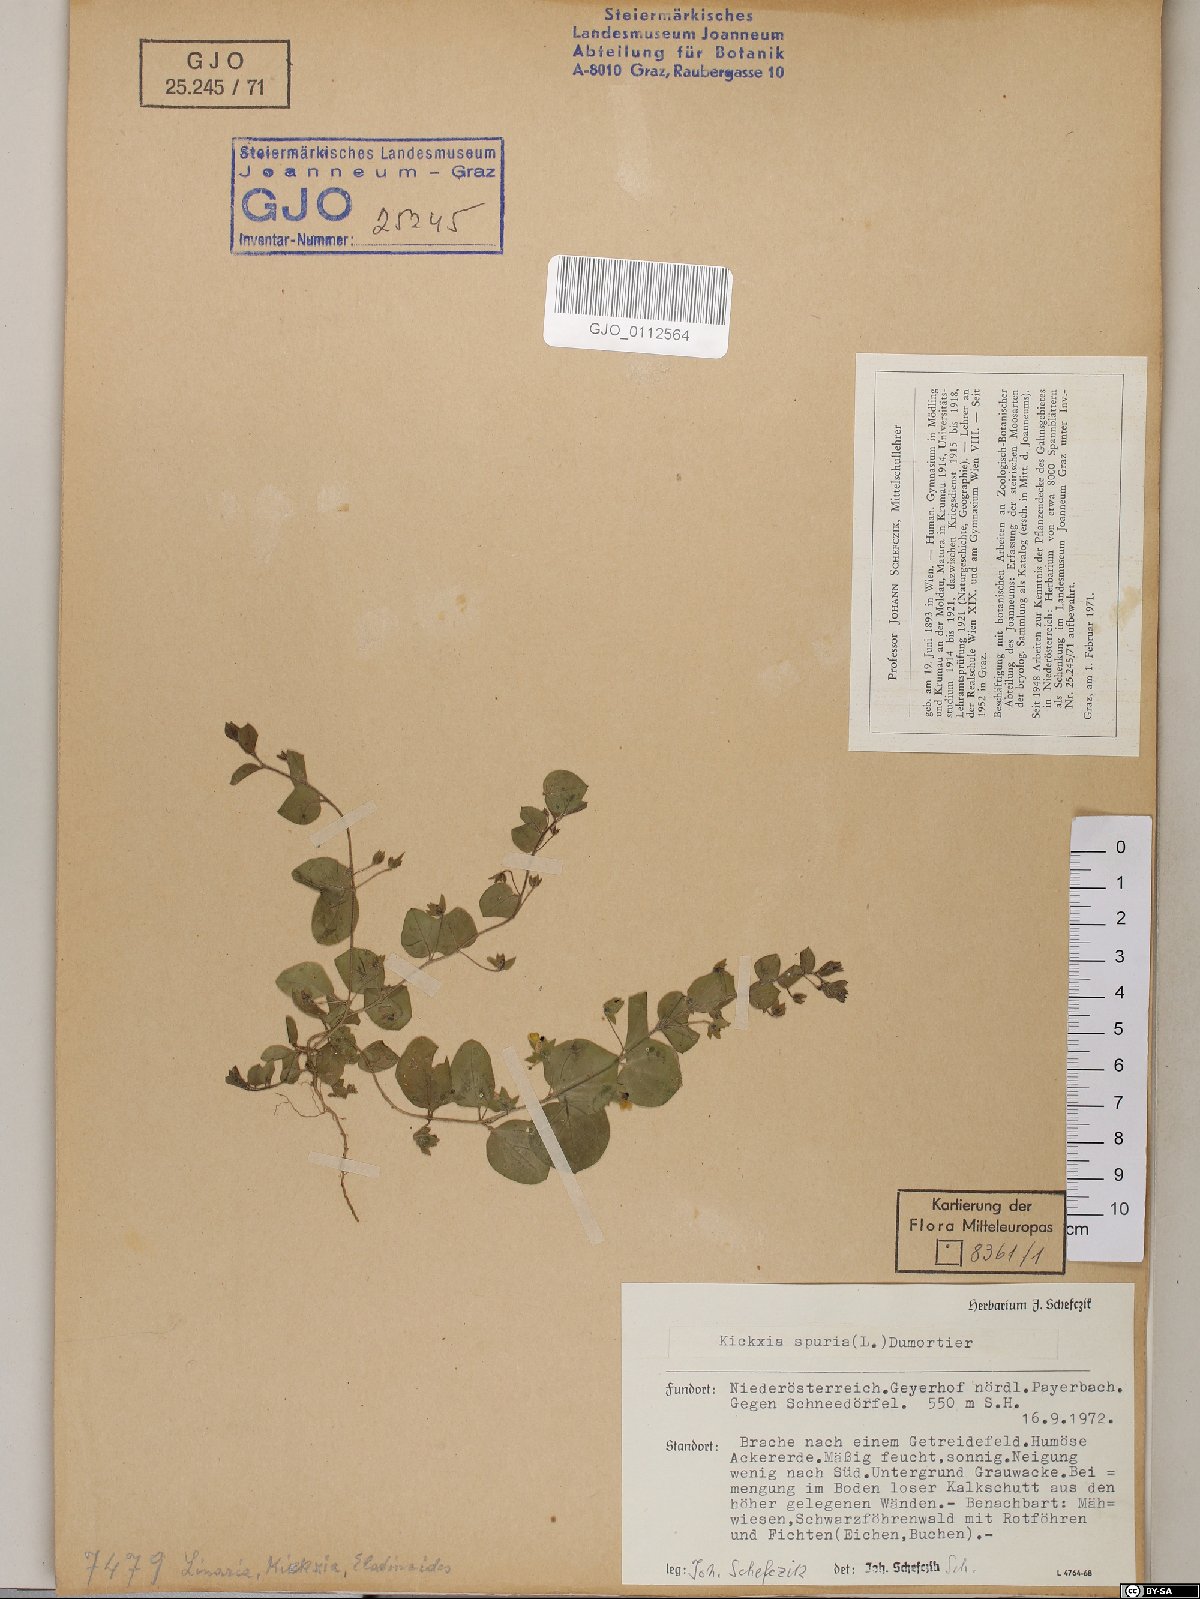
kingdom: Plantae
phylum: Tracheophyta
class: Magnoliopsida
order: Lamiales
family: Plantaginaceae
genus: Kickxia
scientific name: Kickxia spuria
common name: Round-leaved fluellen
